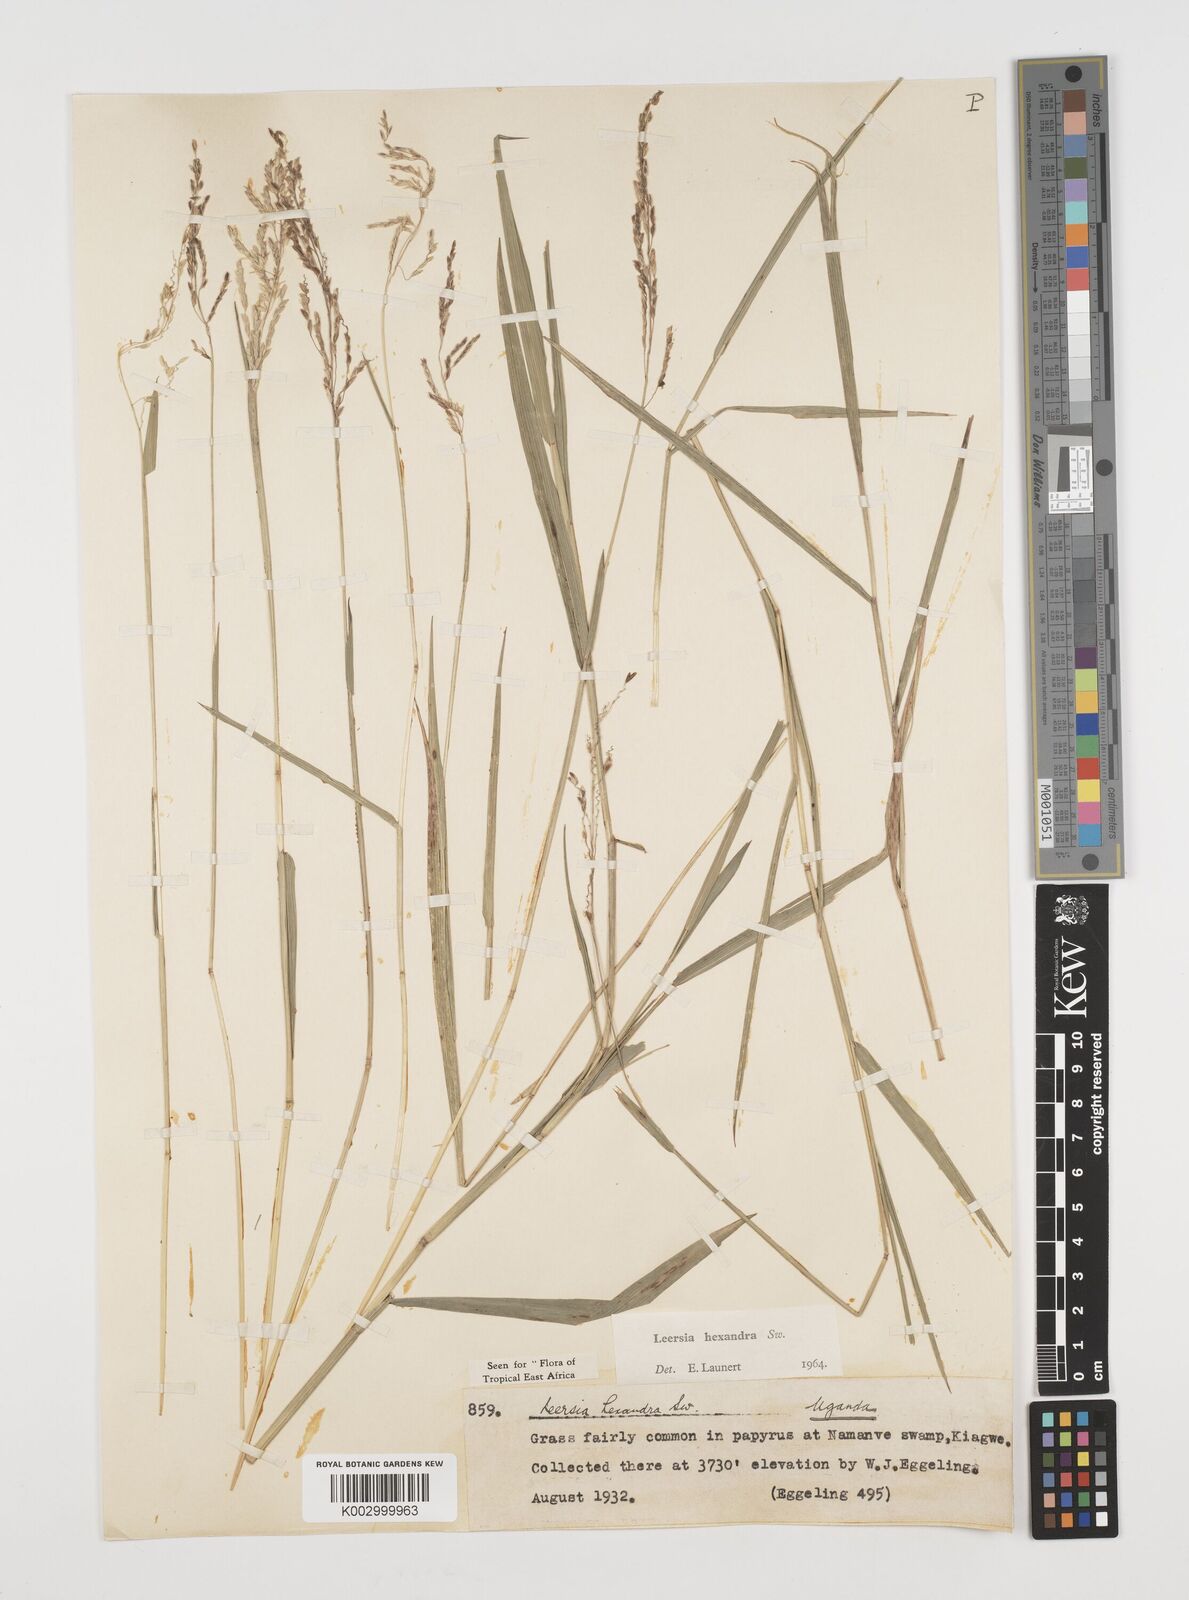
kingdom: Plantae
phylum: Tracheophyta
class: Liliopsida
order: Poales
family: Poaceae
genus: Leersia
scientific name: Leersia hexandra
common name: Southern cut grass
